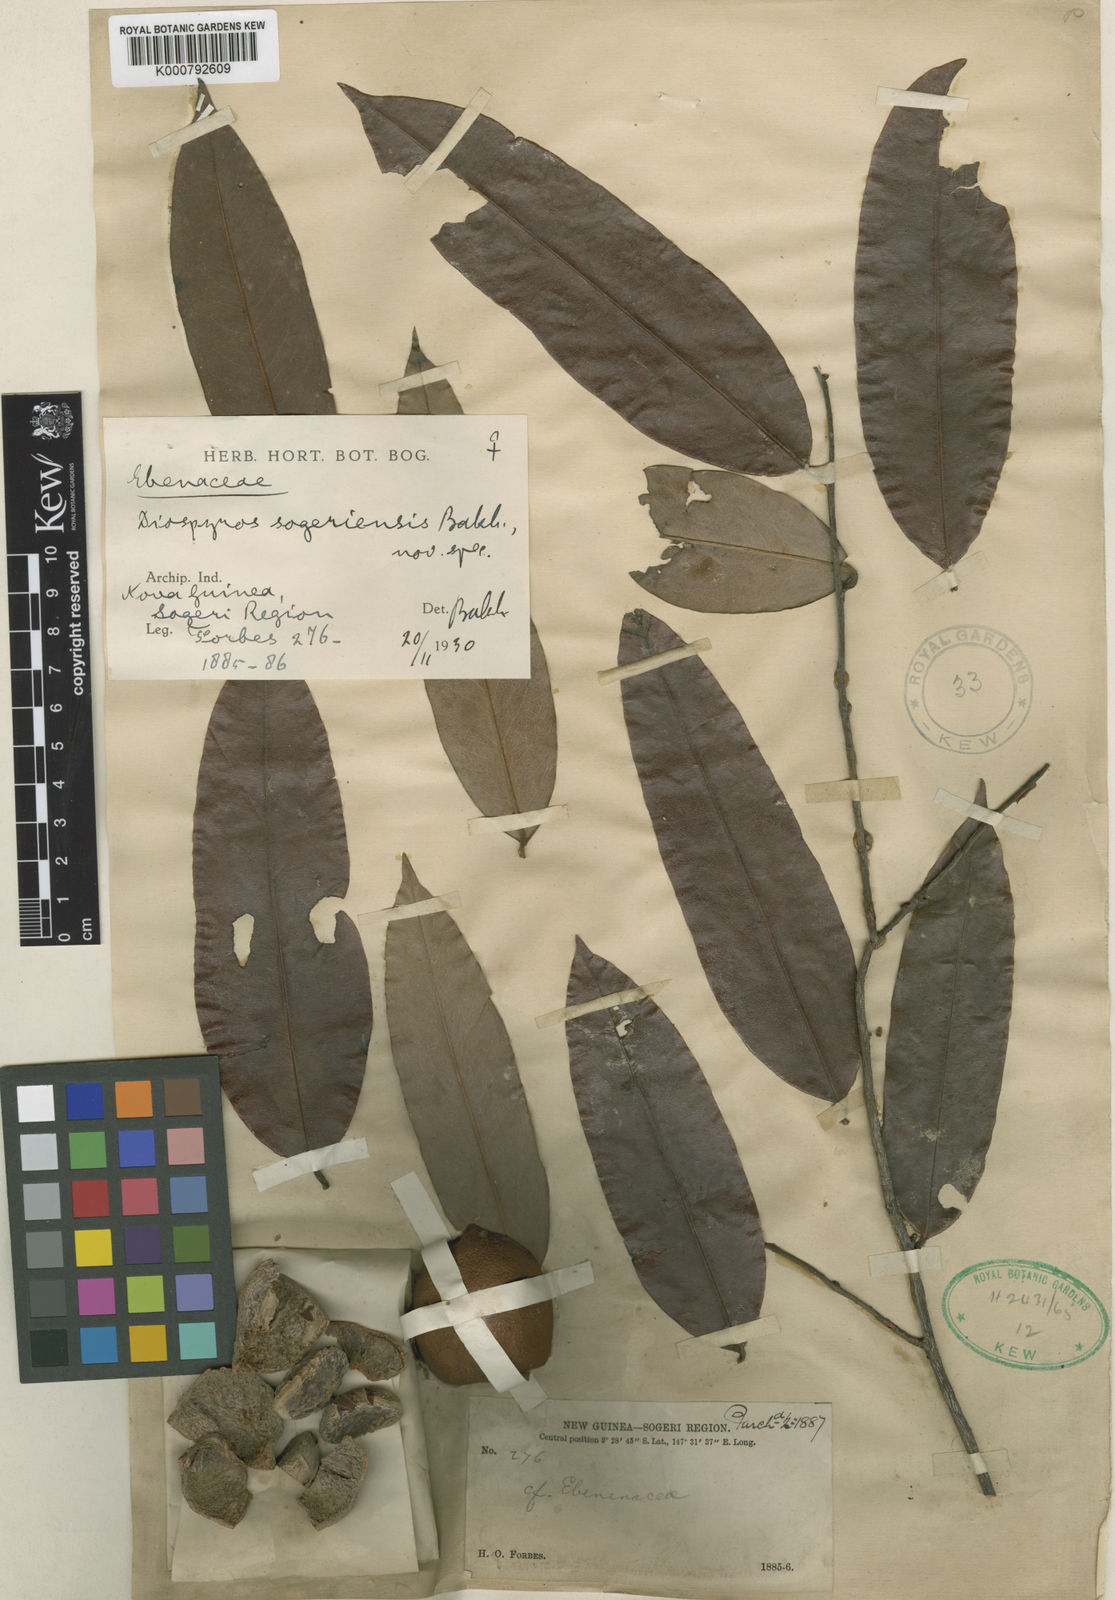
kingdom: Plantae
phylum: Tracheophyta
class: Magnoliopsida
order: Ericales
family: Ebenaceae
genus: Diospyros
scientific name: Diospyros sogeriensis
